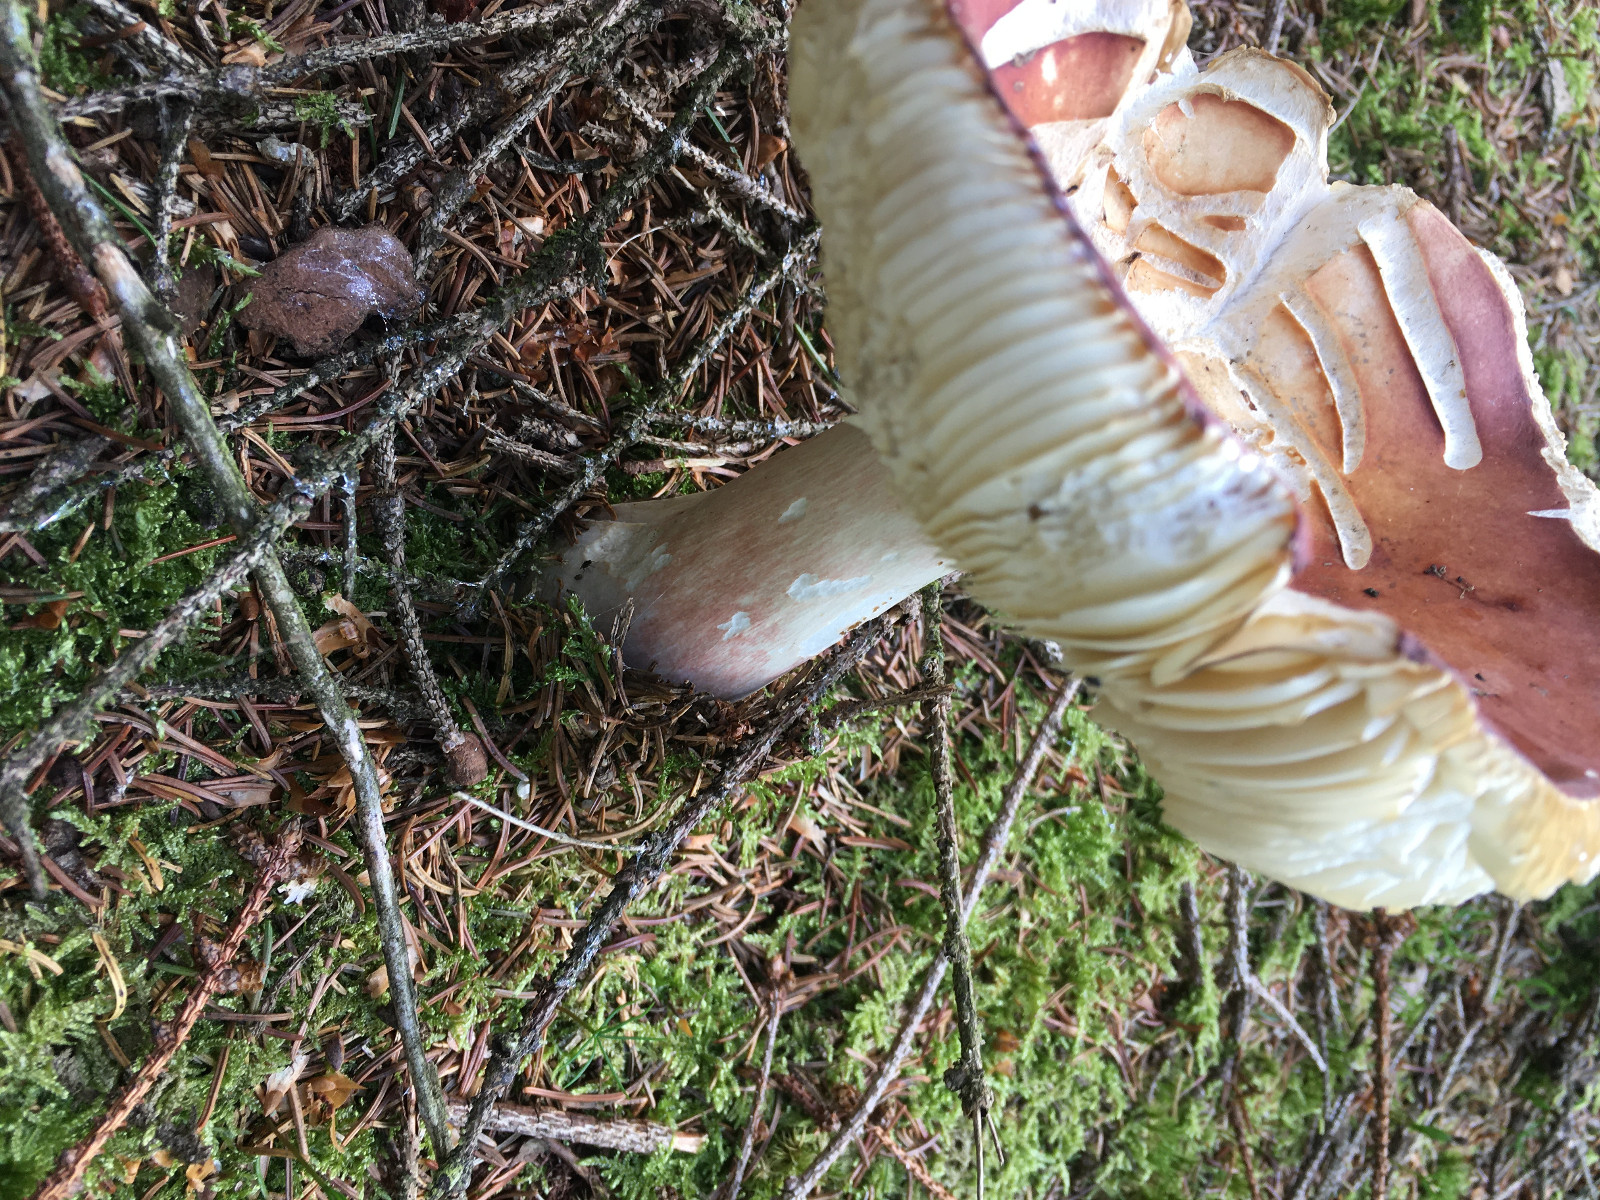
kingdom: Fungi
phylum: Basidiomycota
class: Agaricomycetes
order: Russulales
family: Russulaceae
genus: Russula
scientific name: Russula paludosa
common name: prægtig skørhat
